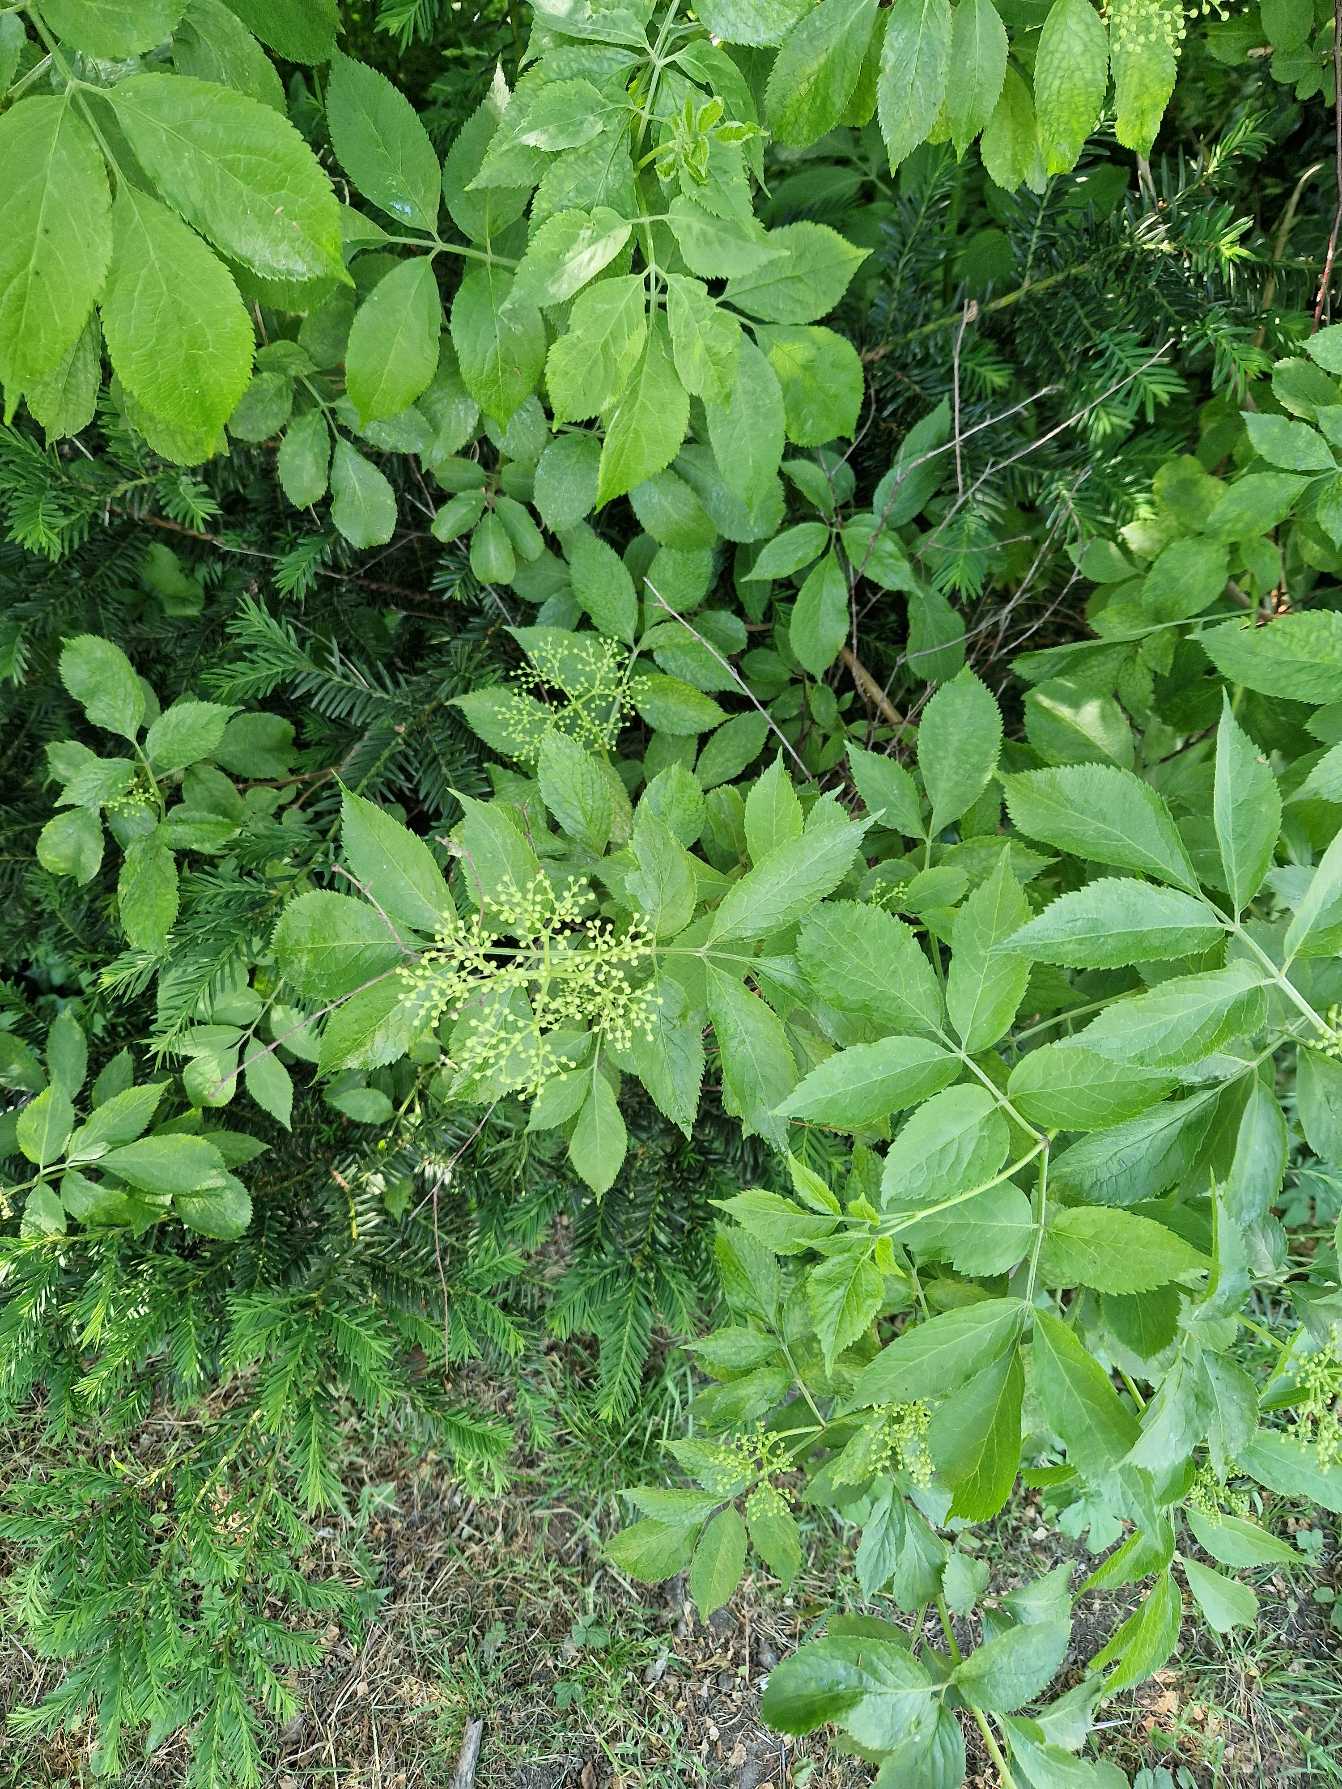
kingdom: Plantae
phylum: Tracheophyta
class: Magnoliopsida
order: Dipsacales
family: Viburnaceae
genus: Sambucus
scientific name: Sambucus nigra
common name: Almindelig hyld
